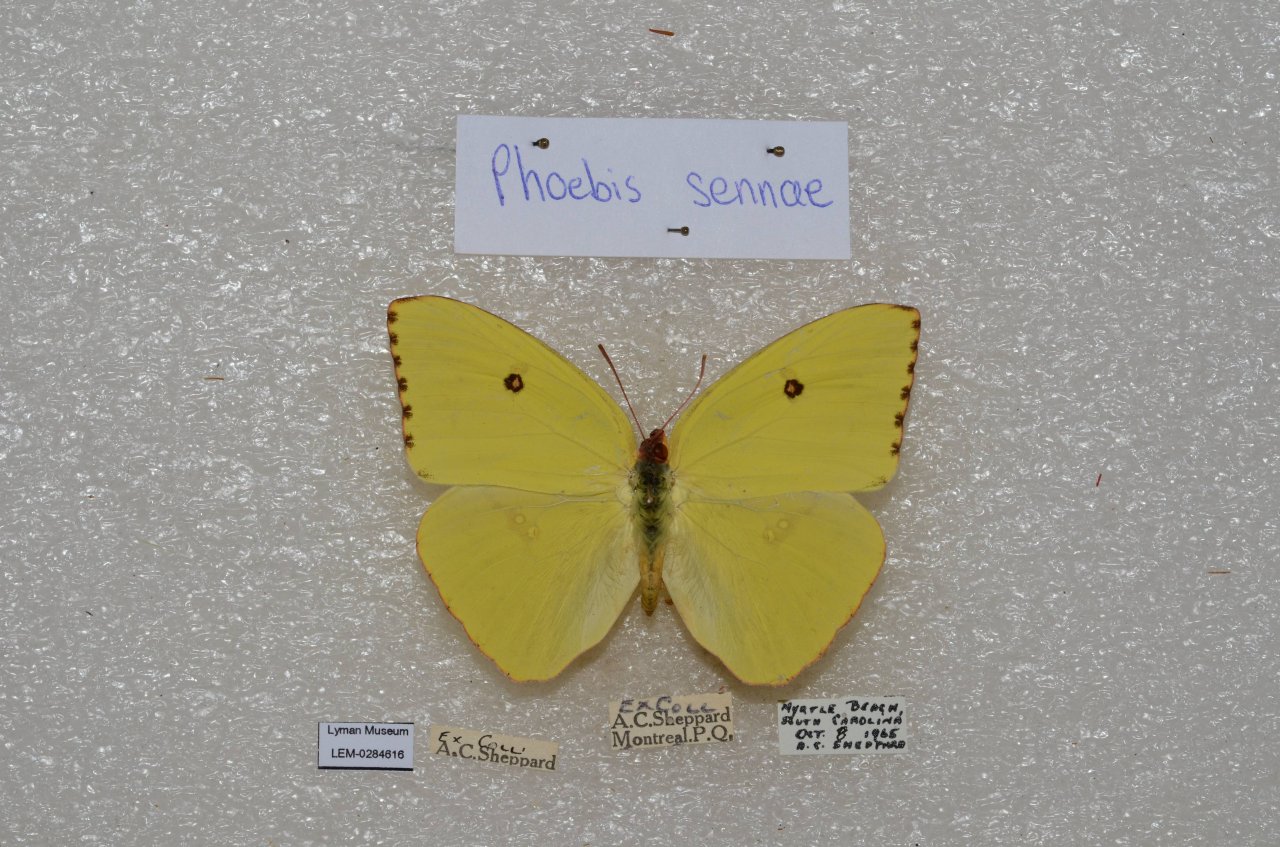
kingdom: Animalia
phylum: Arthropoda
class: Insecta
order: Lepidoptera
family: Pieridae
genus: Phoebis
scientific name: Phoebis sennae
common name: Cloudless Sulphur
